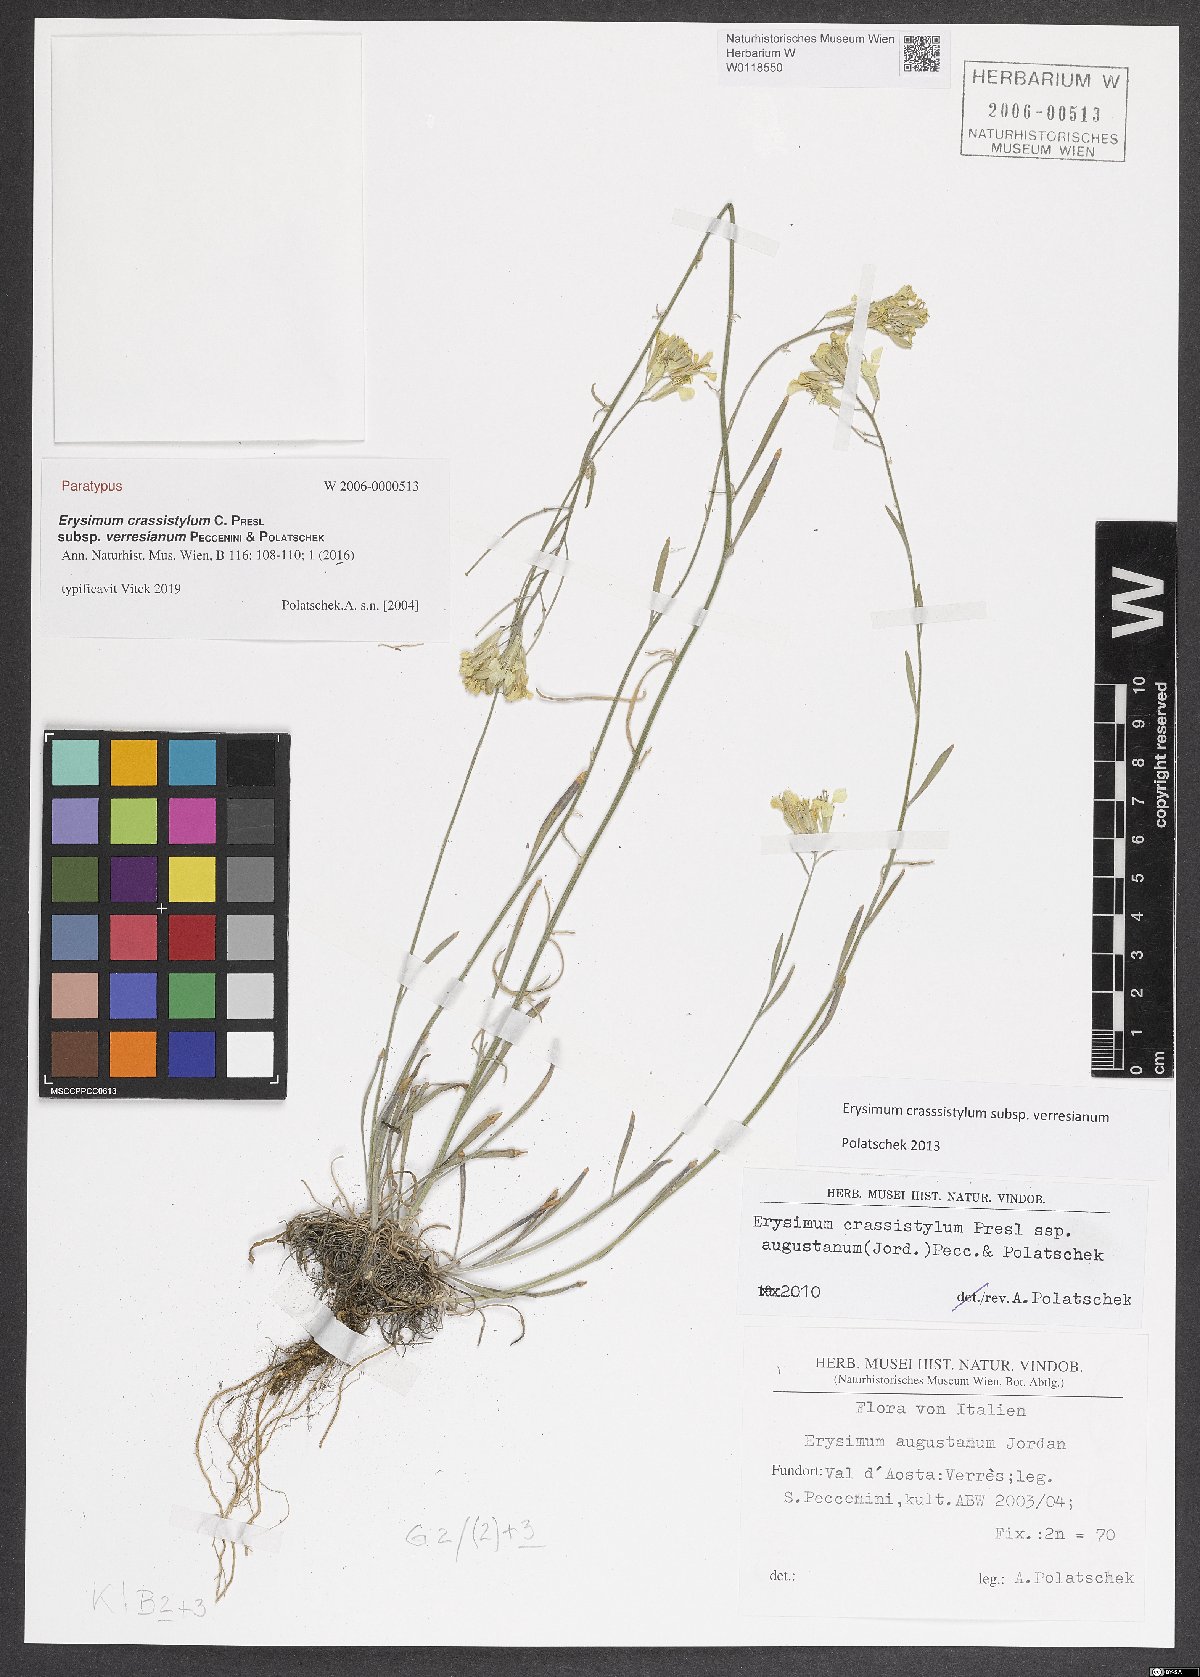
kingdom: Plantae
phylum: Tracheophyta
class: Magnoliopsida
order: Brassicales
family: Brassicaceae
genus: Erysimum
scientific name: Erysimum crassistylum
